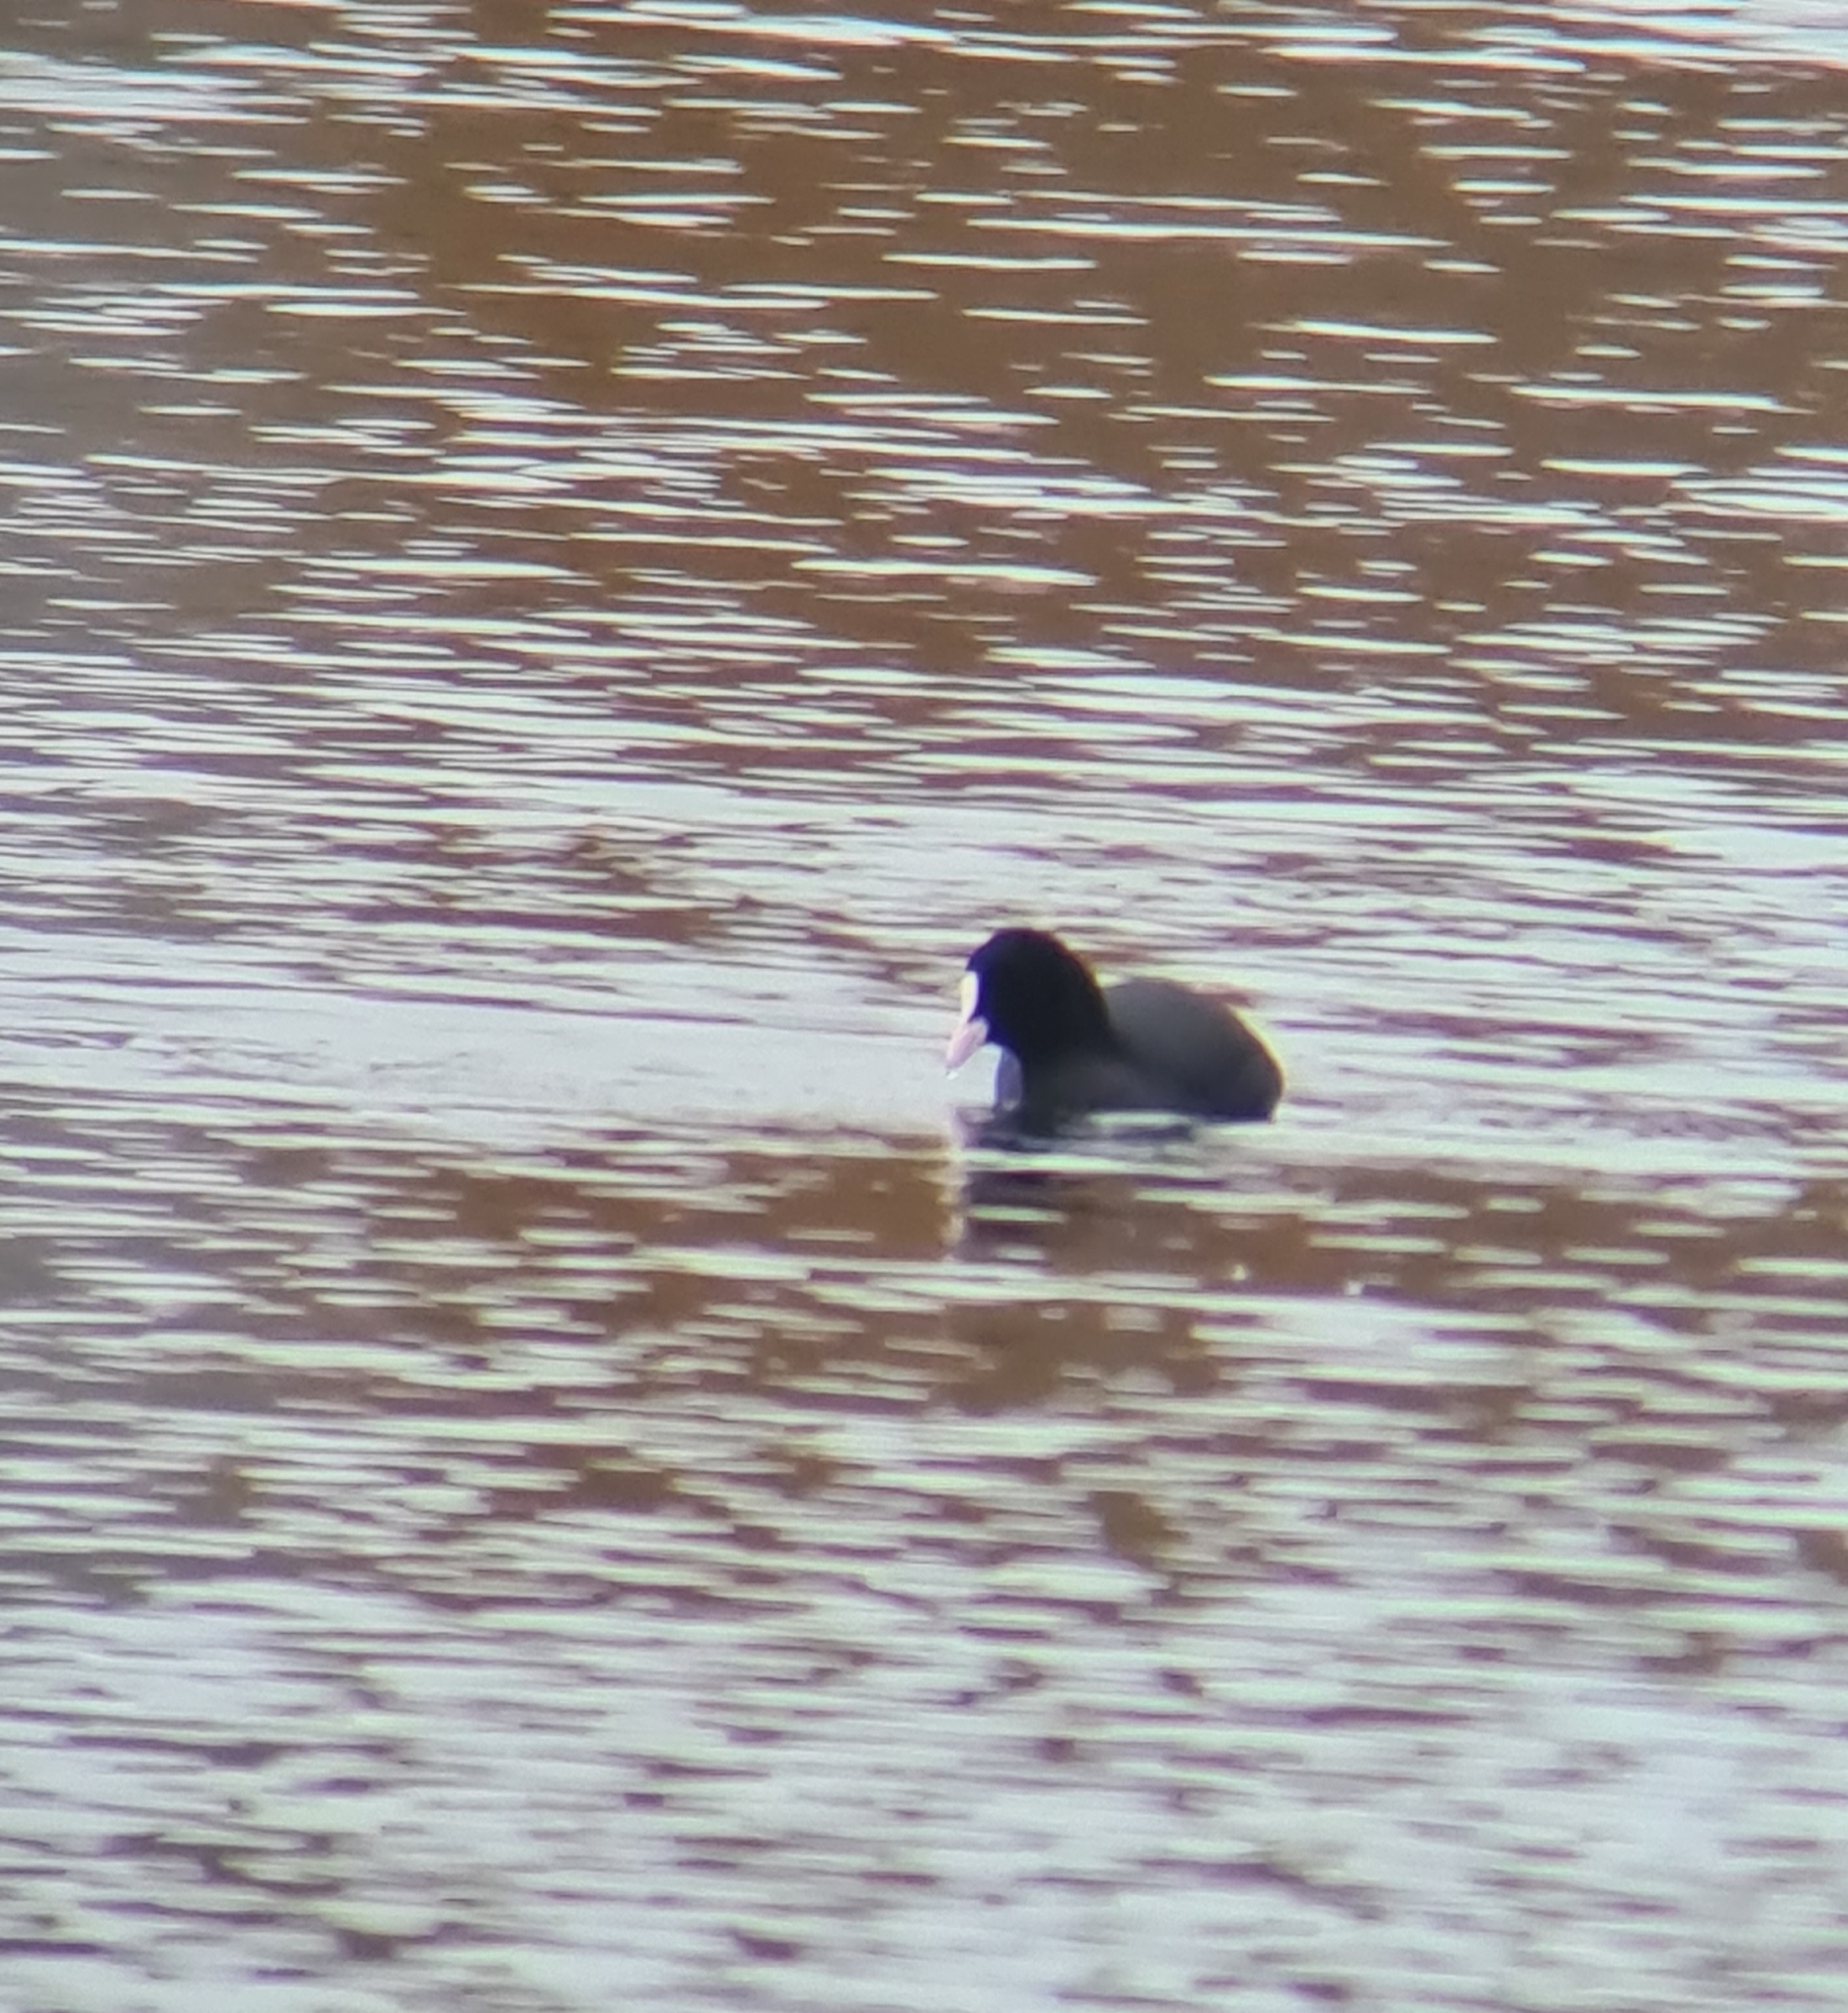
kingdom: Animalia
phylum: Chordata
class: Aves
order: Gruiformes
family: Rallidae
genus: Fulica
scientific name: Fulica atra
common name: Blishøne
